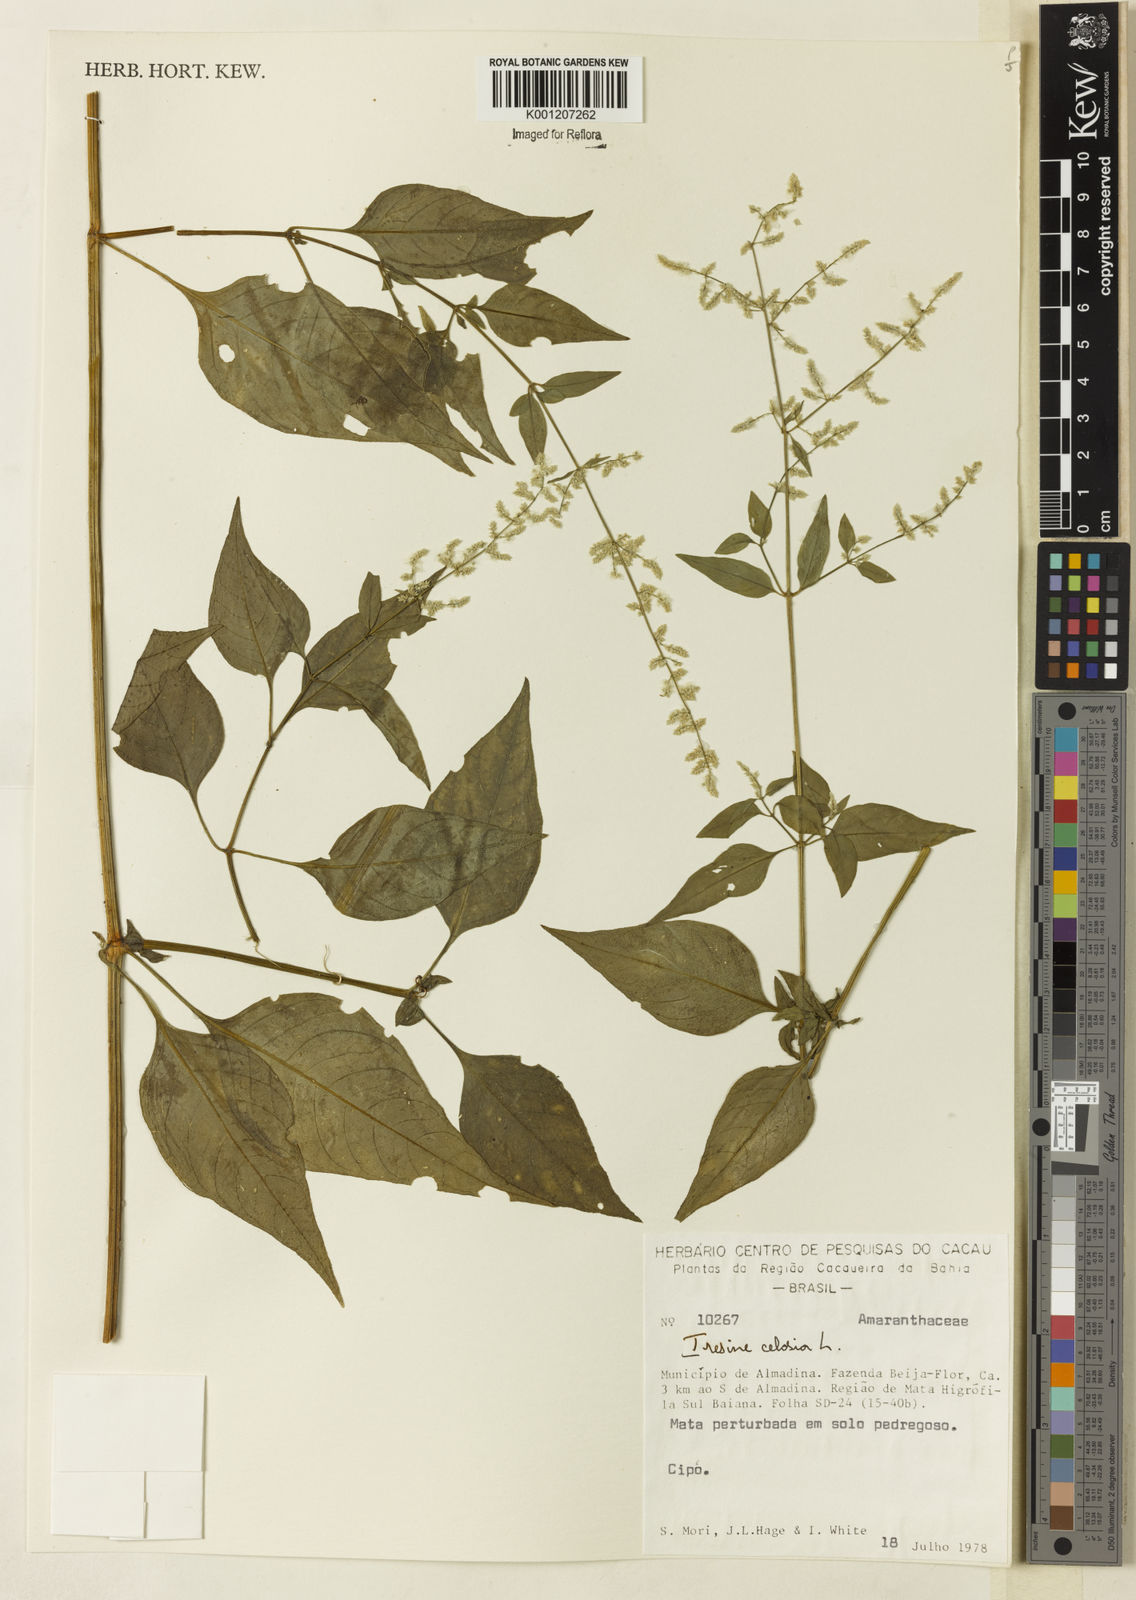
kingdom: Plantae
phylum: Tracheophyta
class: Magnoliopsida
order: Caryophyllales
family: Amaranthaceae
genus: Iresine
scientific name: Iresine rhizomatosa
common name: Juda's-bush
